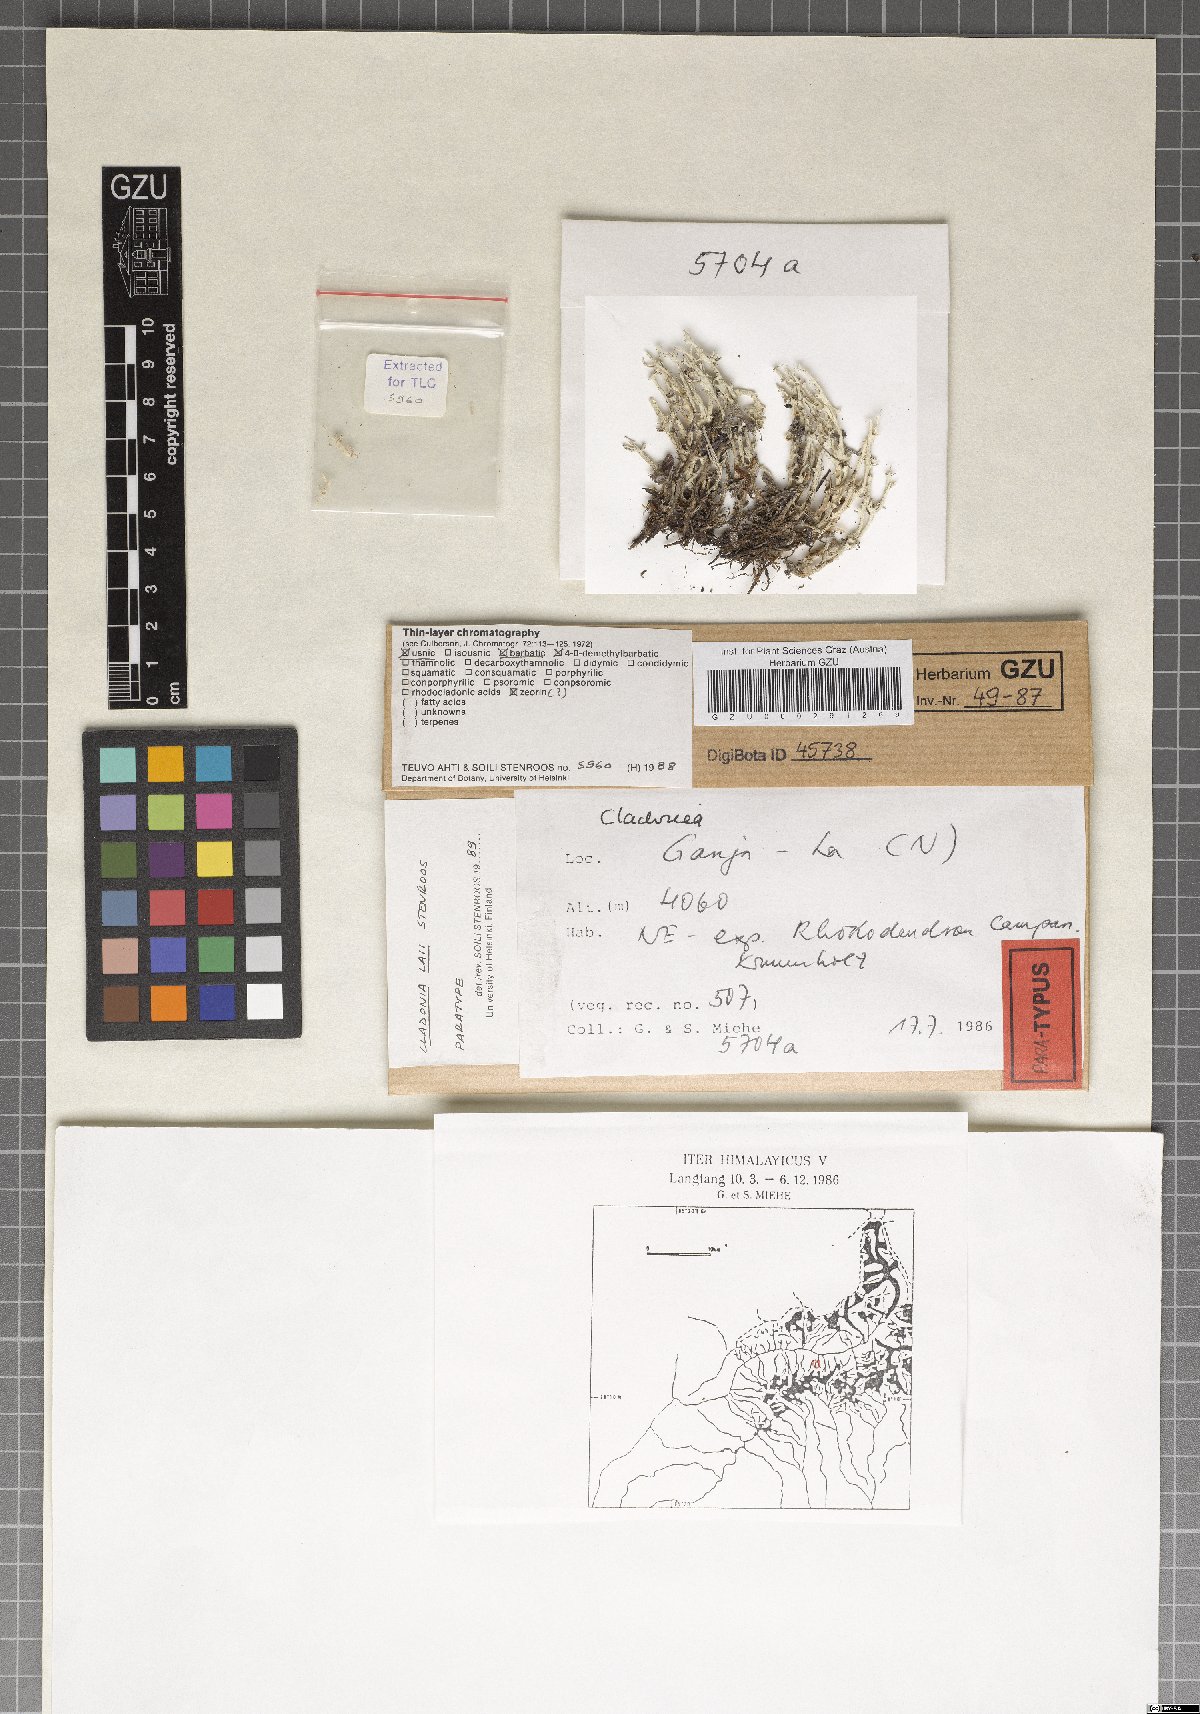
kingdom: Plantae
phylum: Marchantiophyta
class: Marchantiopsida
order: Marchantiales
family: Monocleaceae
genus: Monoclea
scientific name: Monoclea
